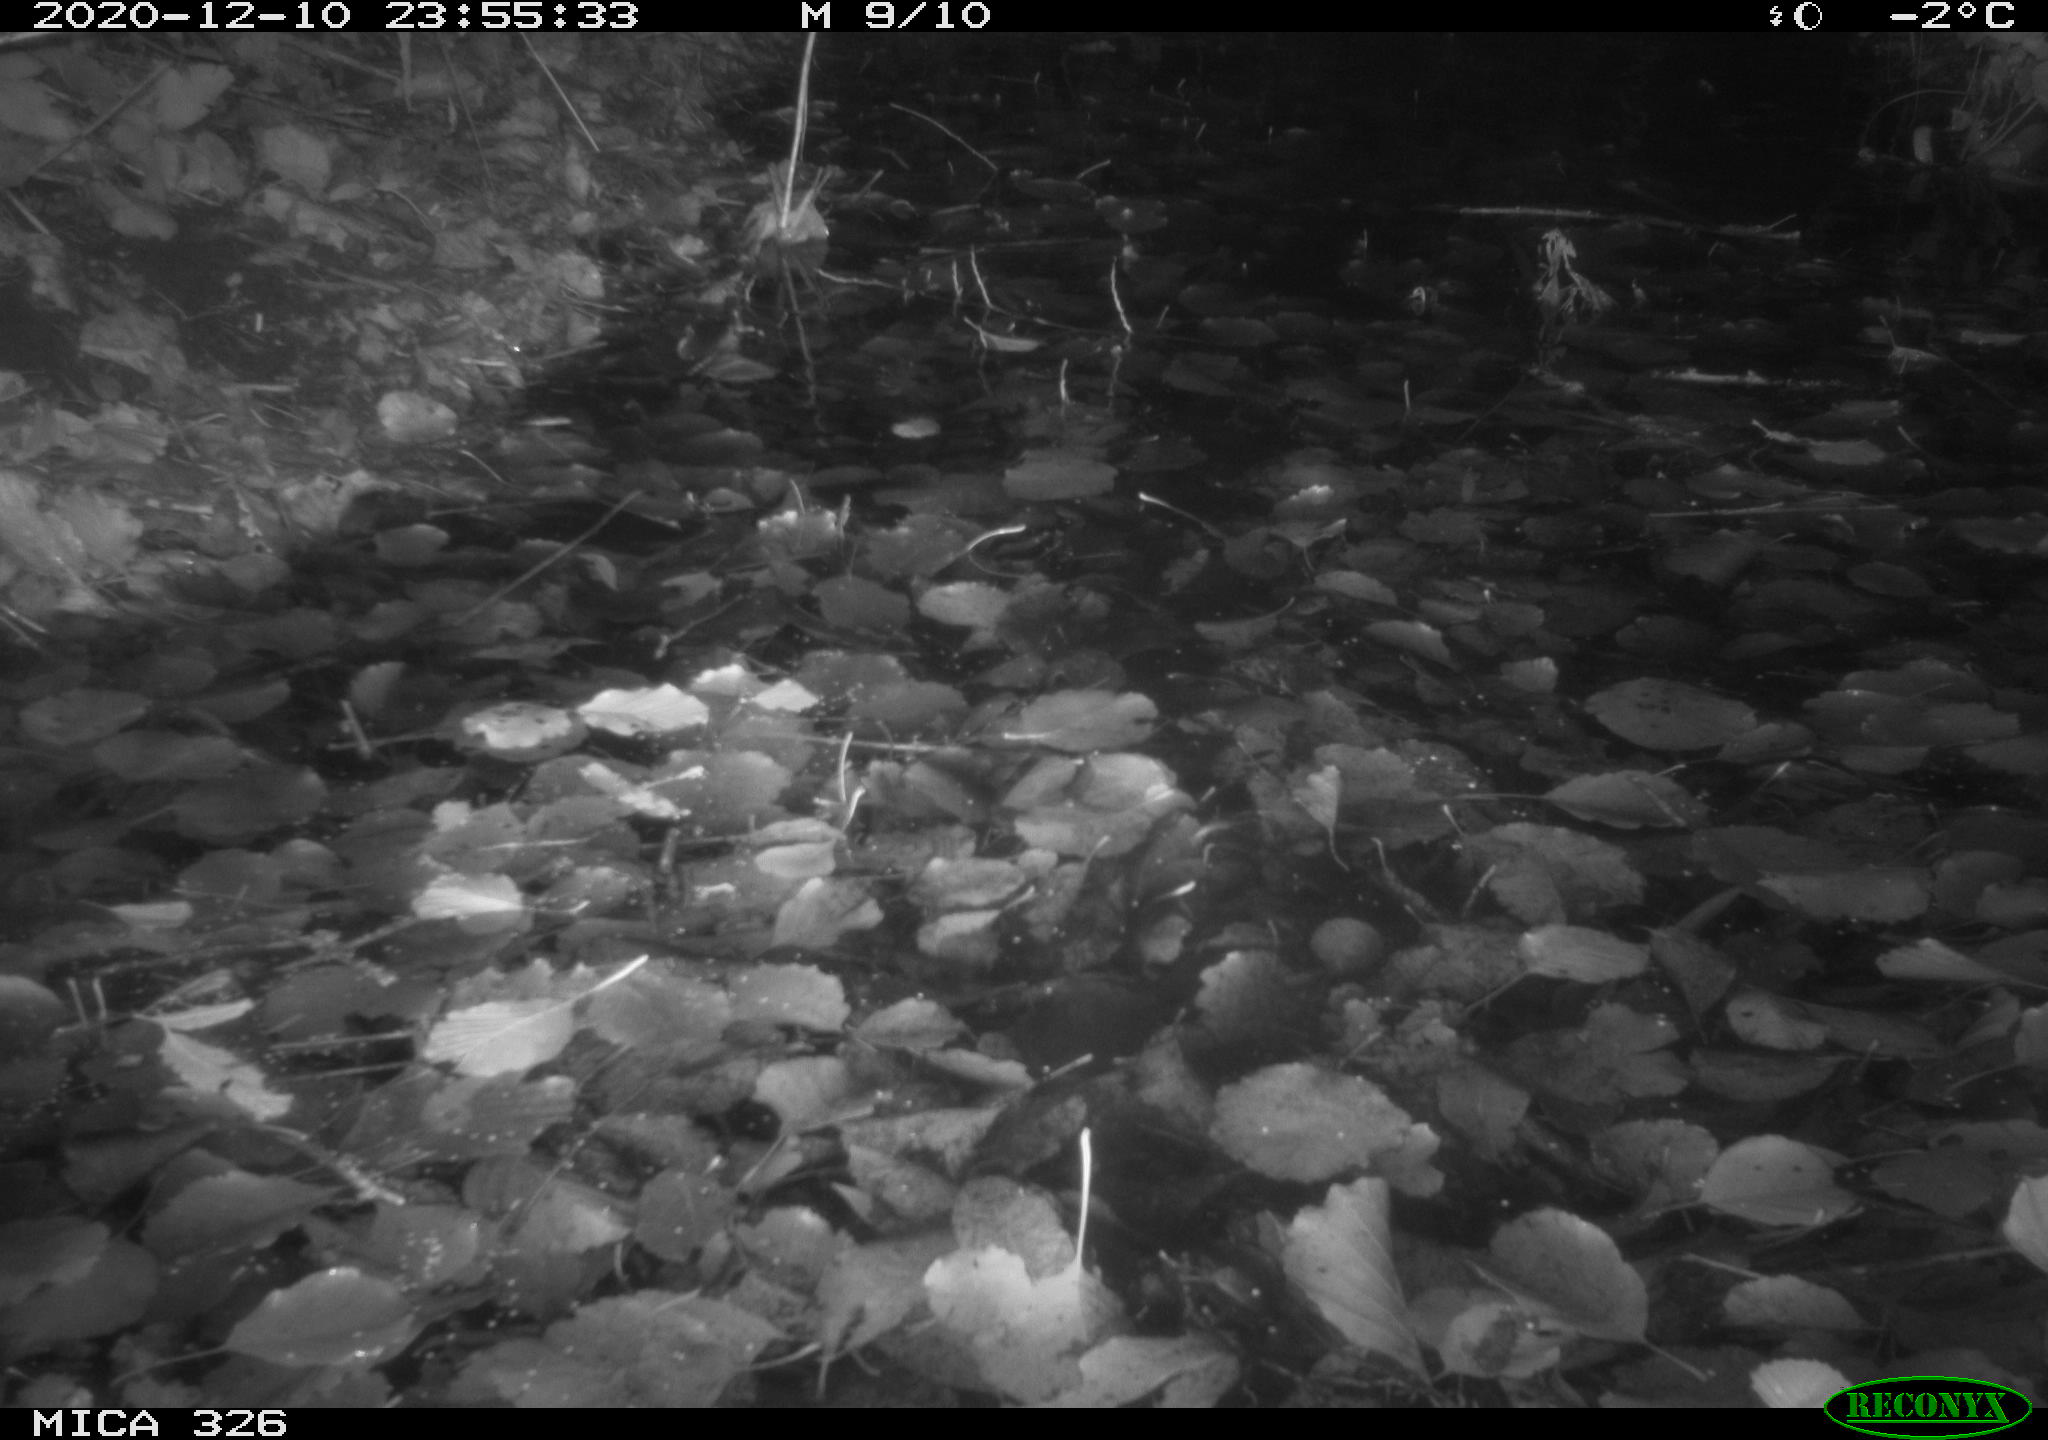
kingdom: Animalia
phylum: Chordata
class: Mammalia
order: Carnivora
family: Mustelidae
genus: Lutra
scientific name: Lutra lutra
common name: European otter
